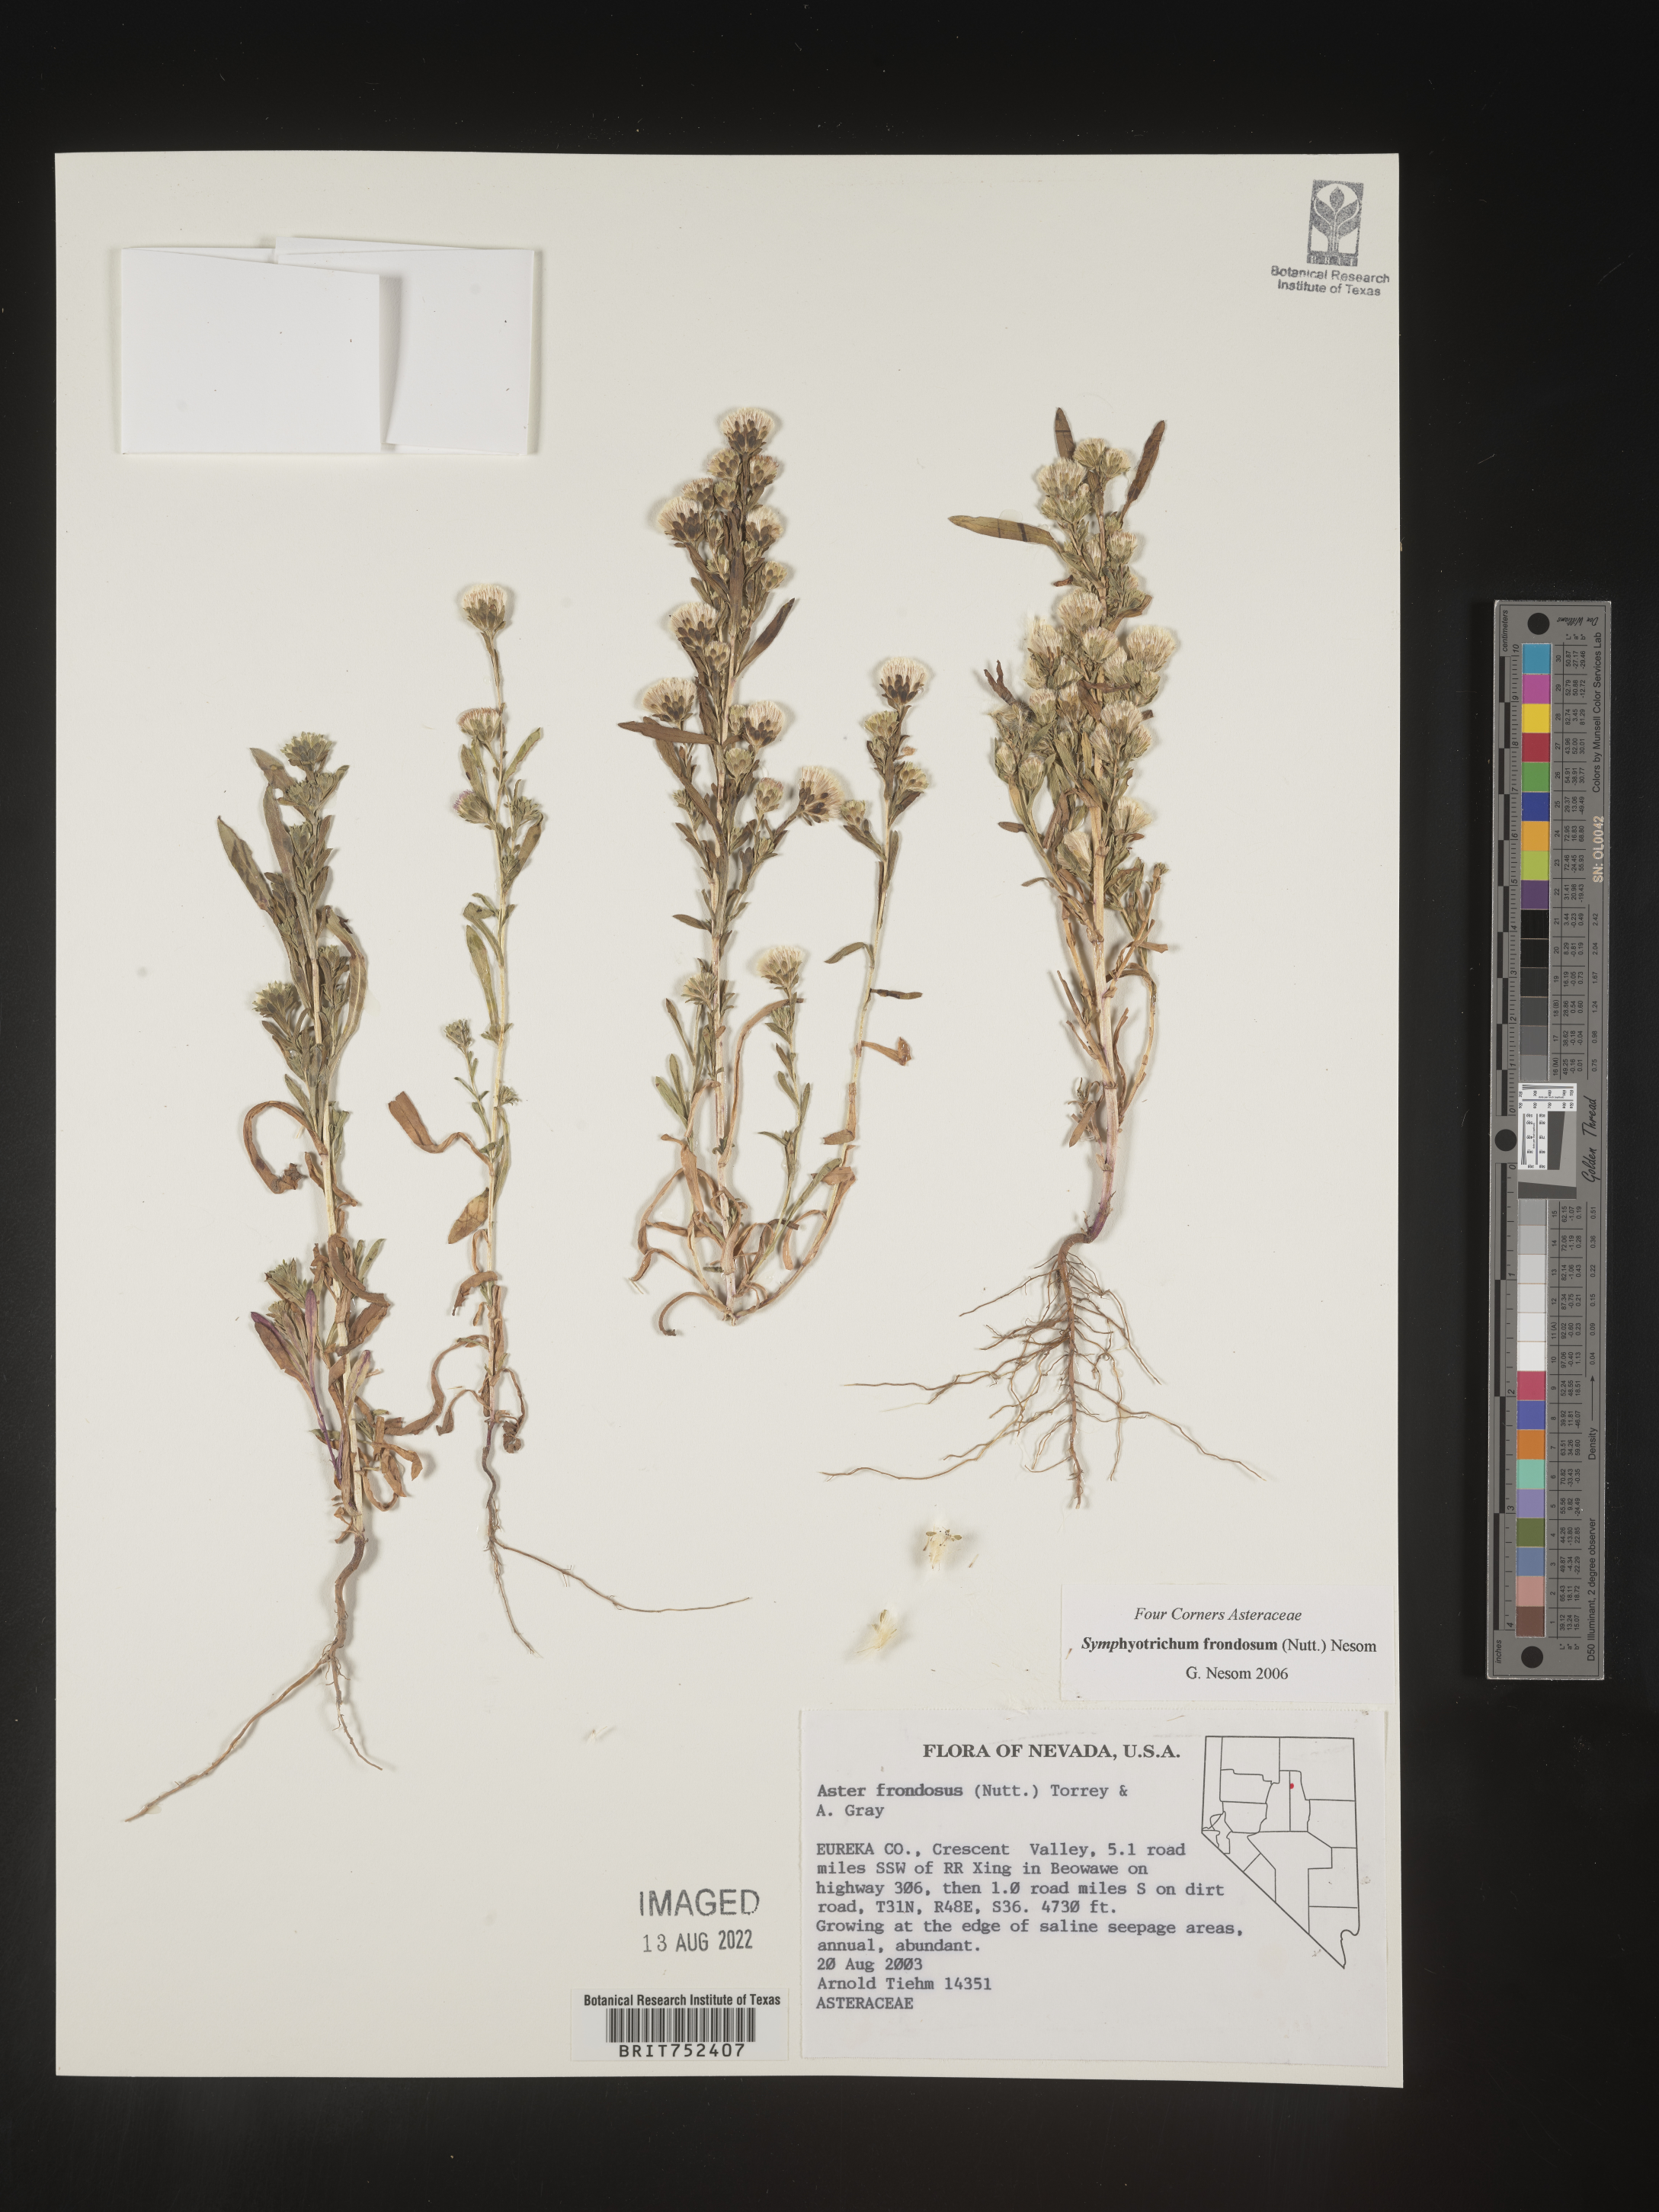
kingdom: Plantae
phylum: Tracheophyta
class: Magnoliopsida
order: Asterales
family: Asteraceae
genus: Symphyotrichum
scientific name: Symphyotrichum frondosum
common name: Leafy aster
